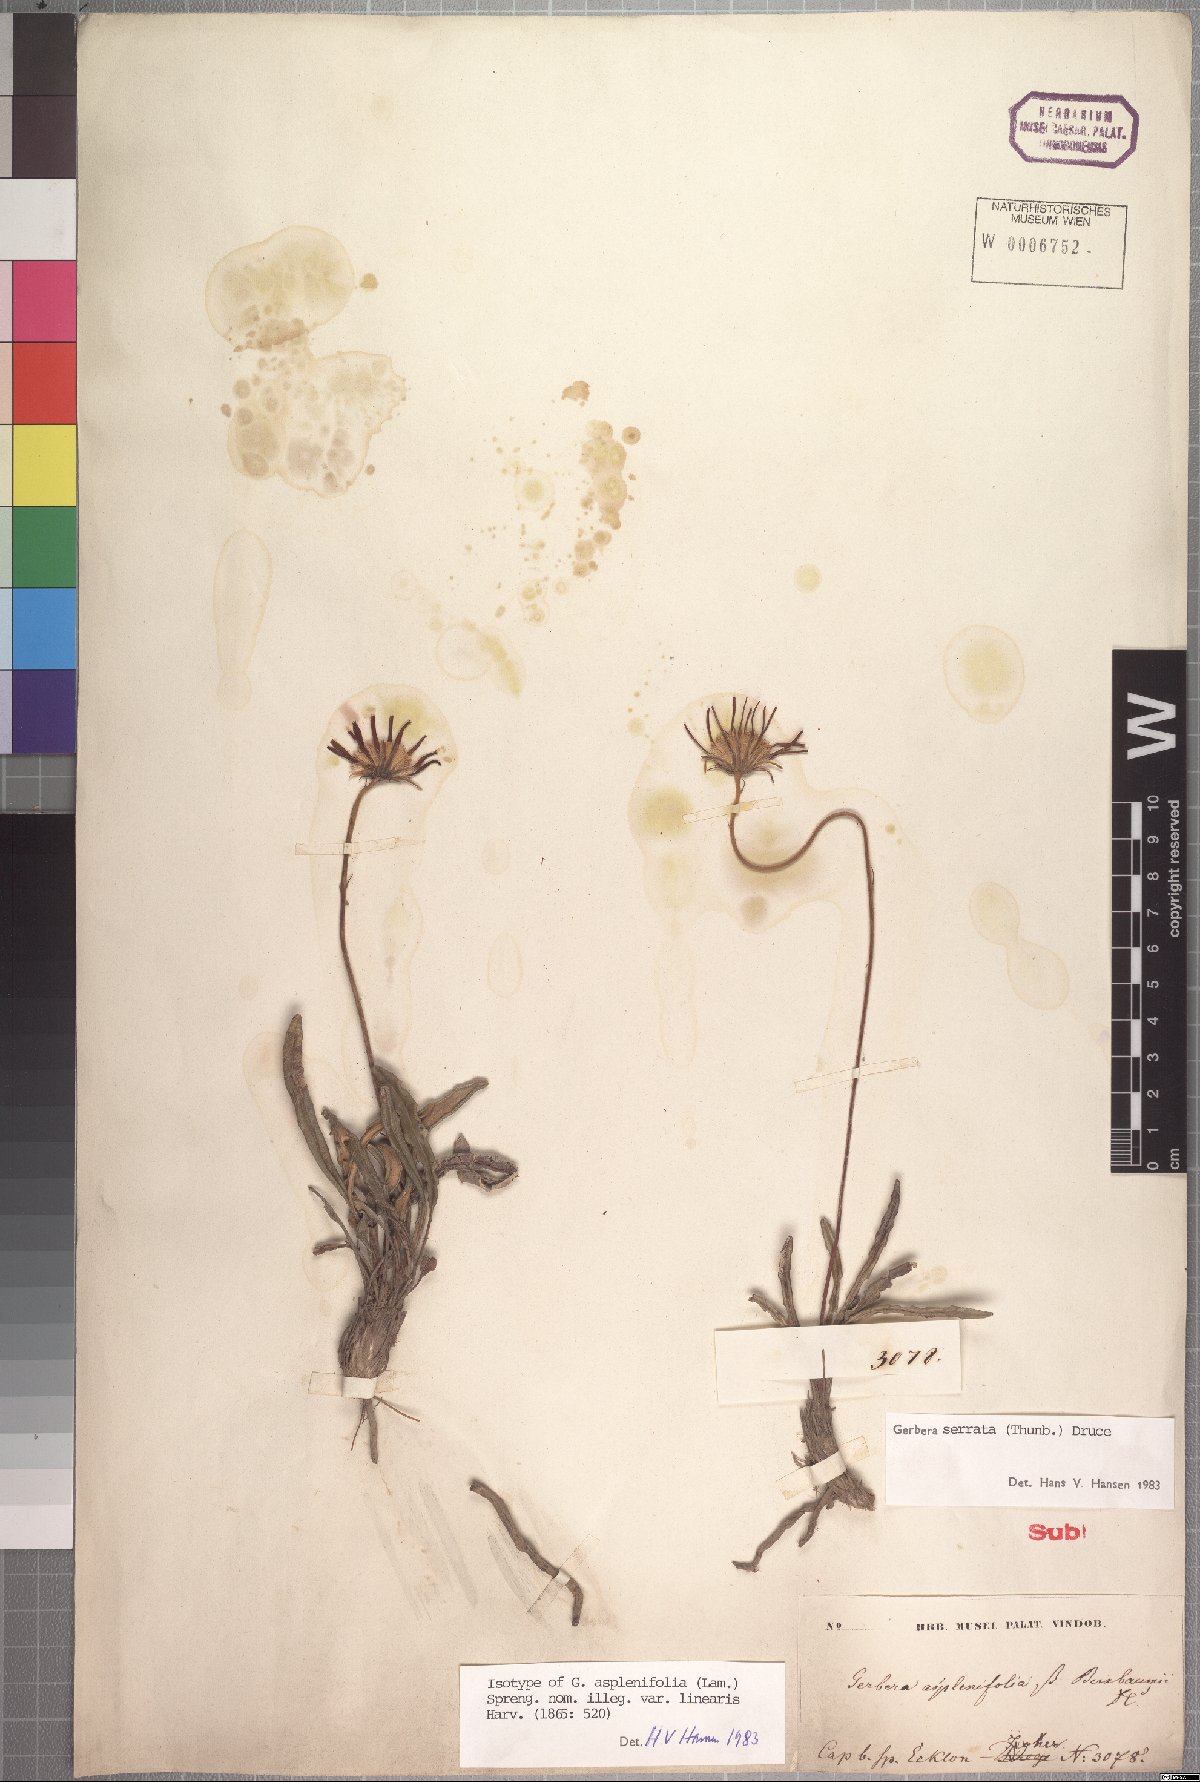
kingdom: Plantae
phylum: Tracheophyta
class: Magnoliopsida
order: Asterales
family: Asteraceae
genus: Gerbera
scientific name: Gerbera serrata
